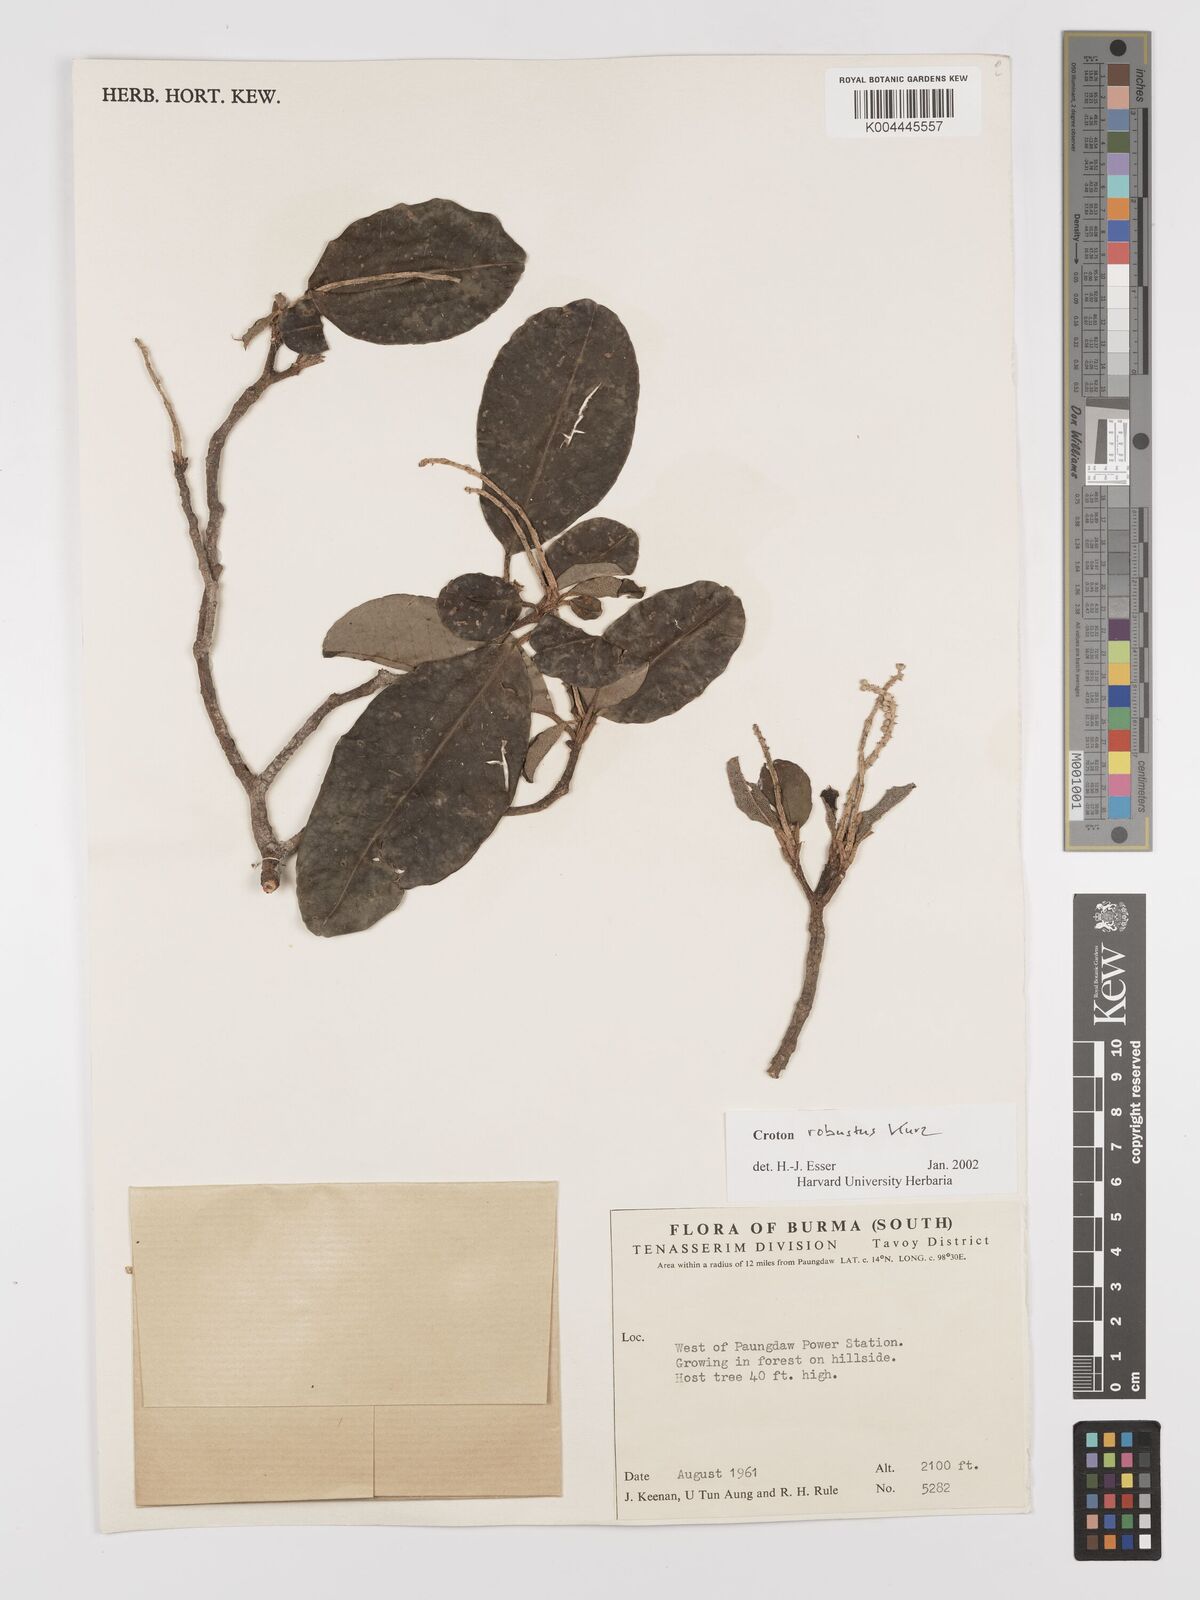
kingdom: Plantae
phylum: Tracheophyta
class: Magnoliopsida
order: Malpighiales
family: Euphorbiaceae
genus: Croton
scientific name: Croton robustus
